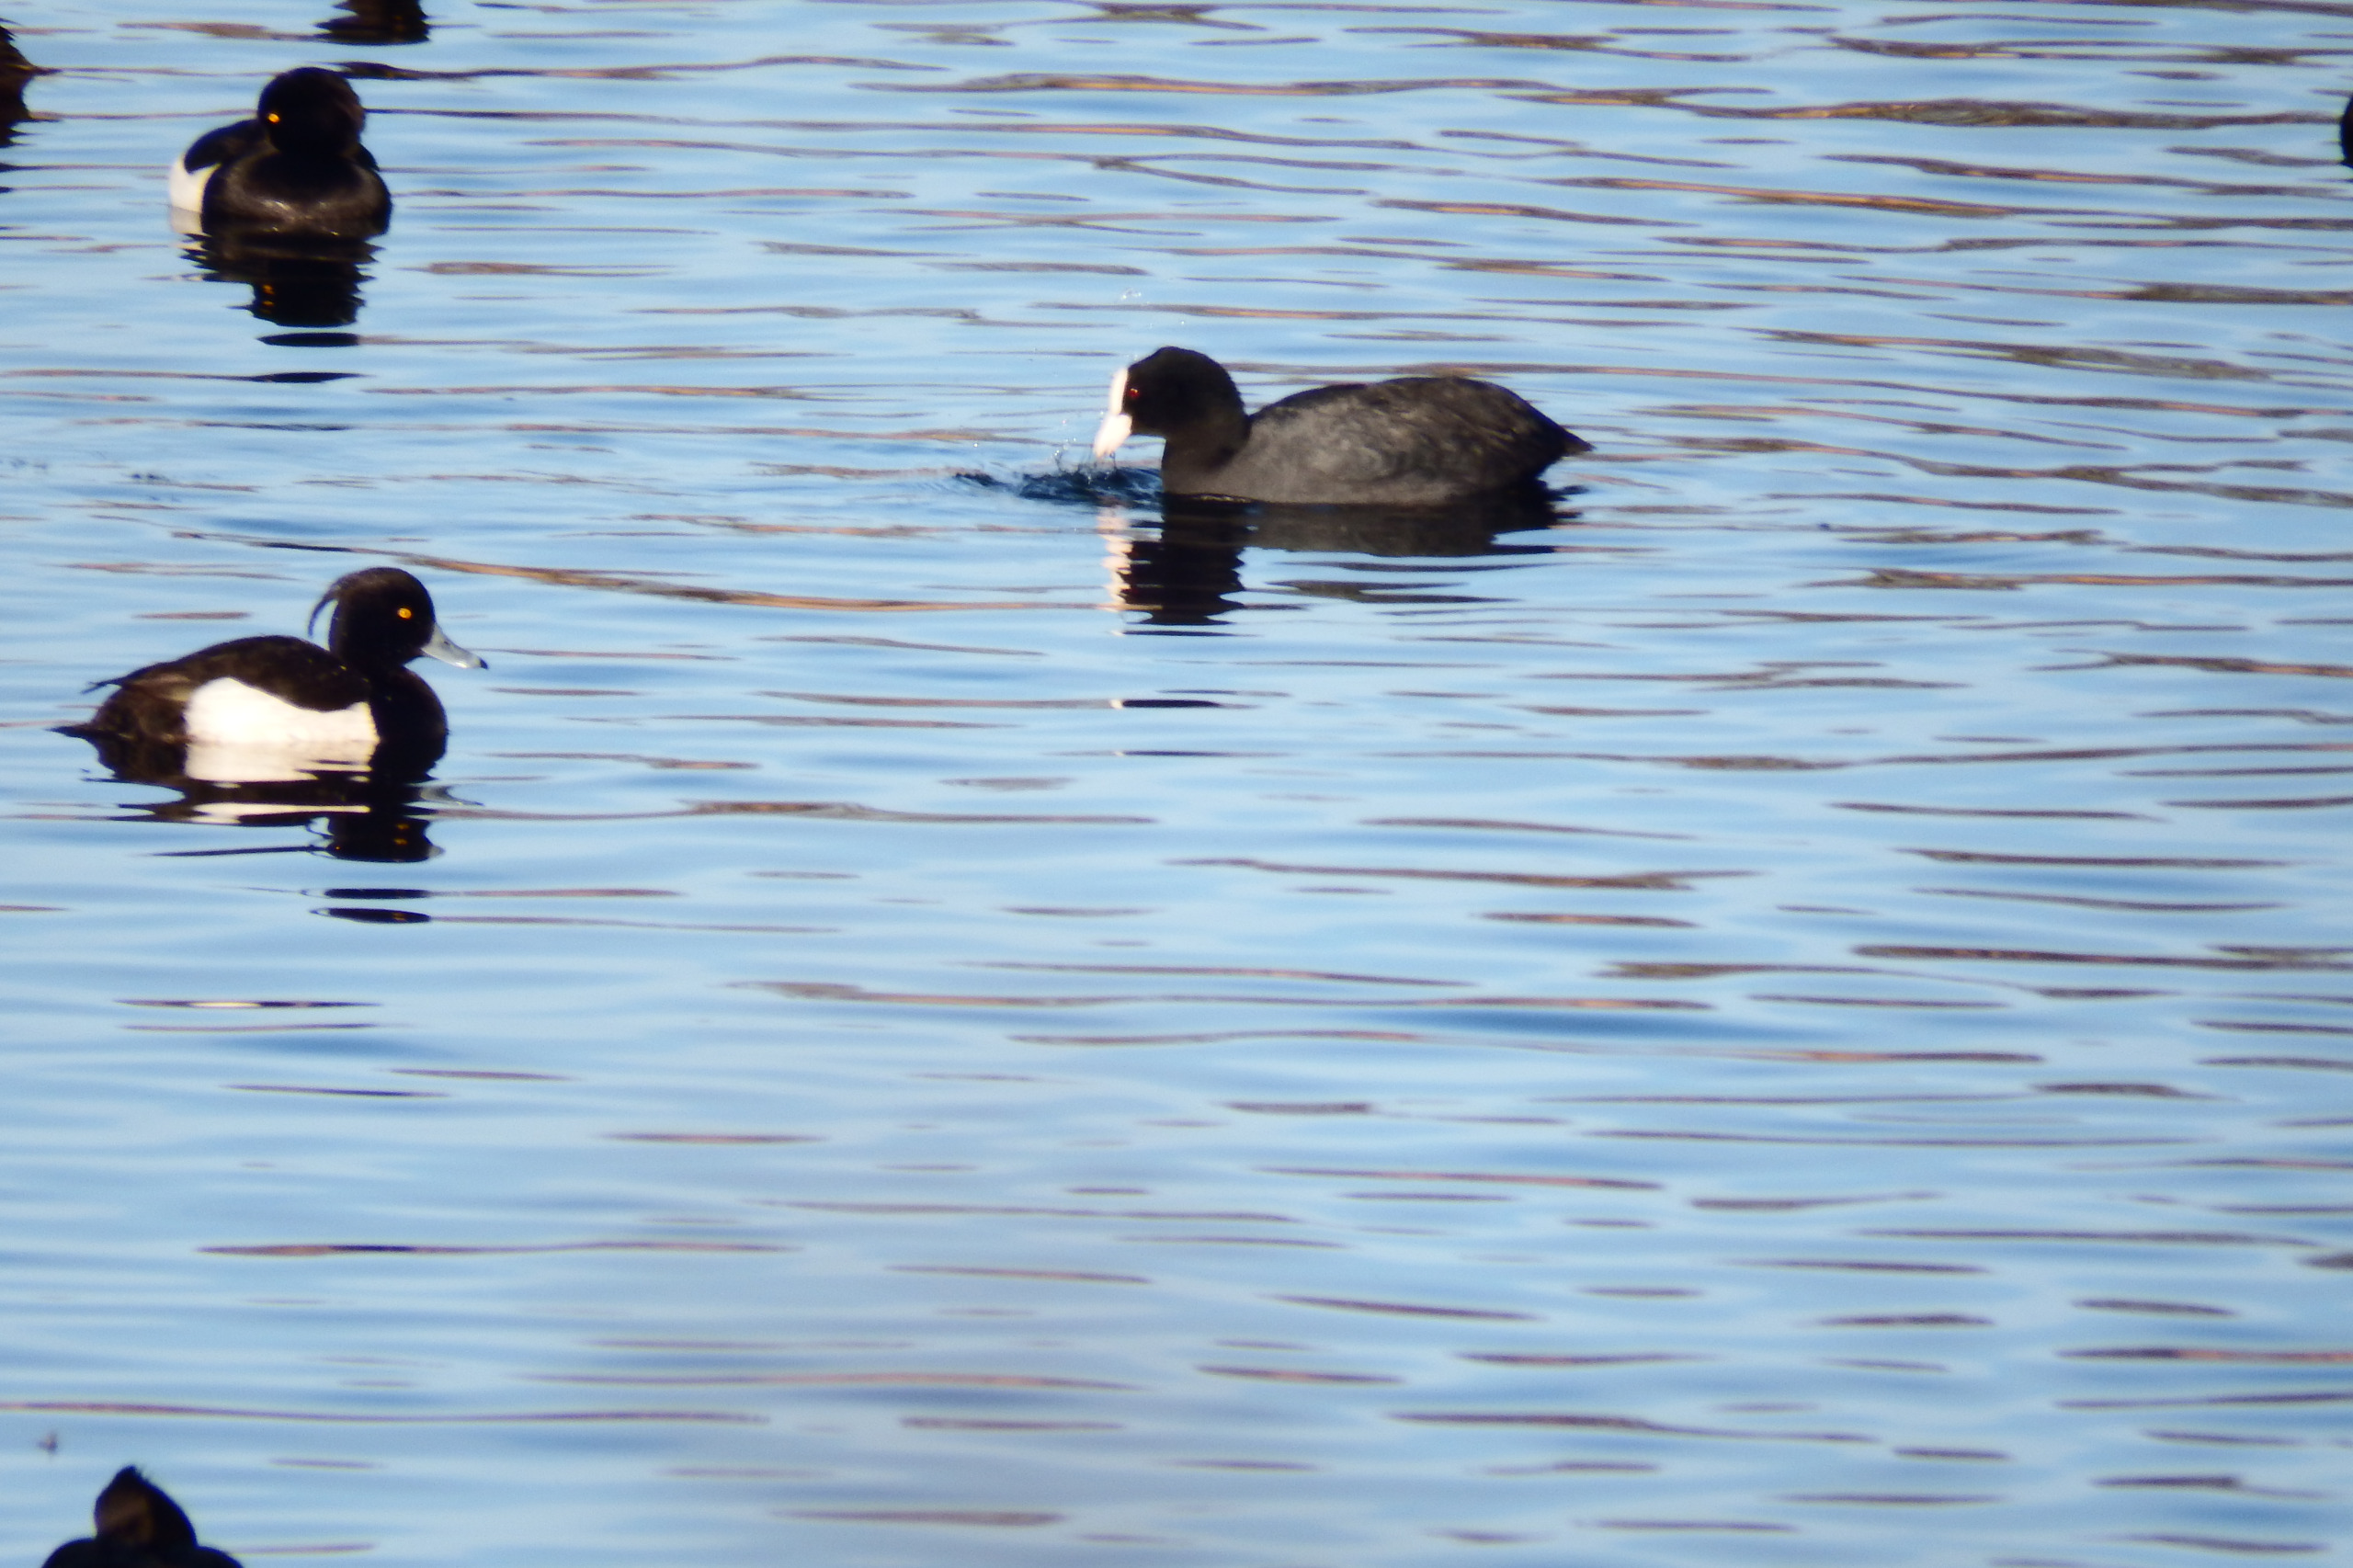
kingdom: Animalia
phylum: Chordata
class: Aves
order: Gruiformes
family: Rallidae
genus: Fulica
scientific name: Fulica atra
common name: Blishøne
